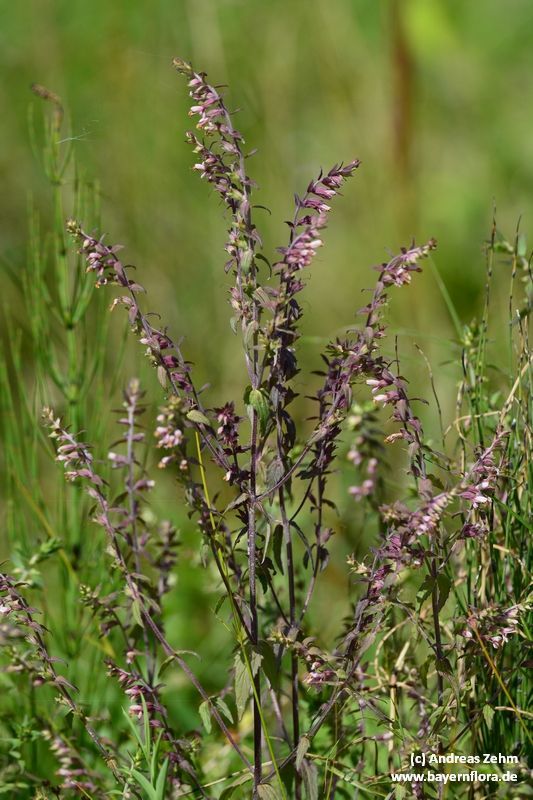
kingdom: Plantae
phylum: Tracheophyta
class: Magnoliopsida
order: Lamiales
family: Orobanchaceae
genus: Odontites
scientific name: Odontites
